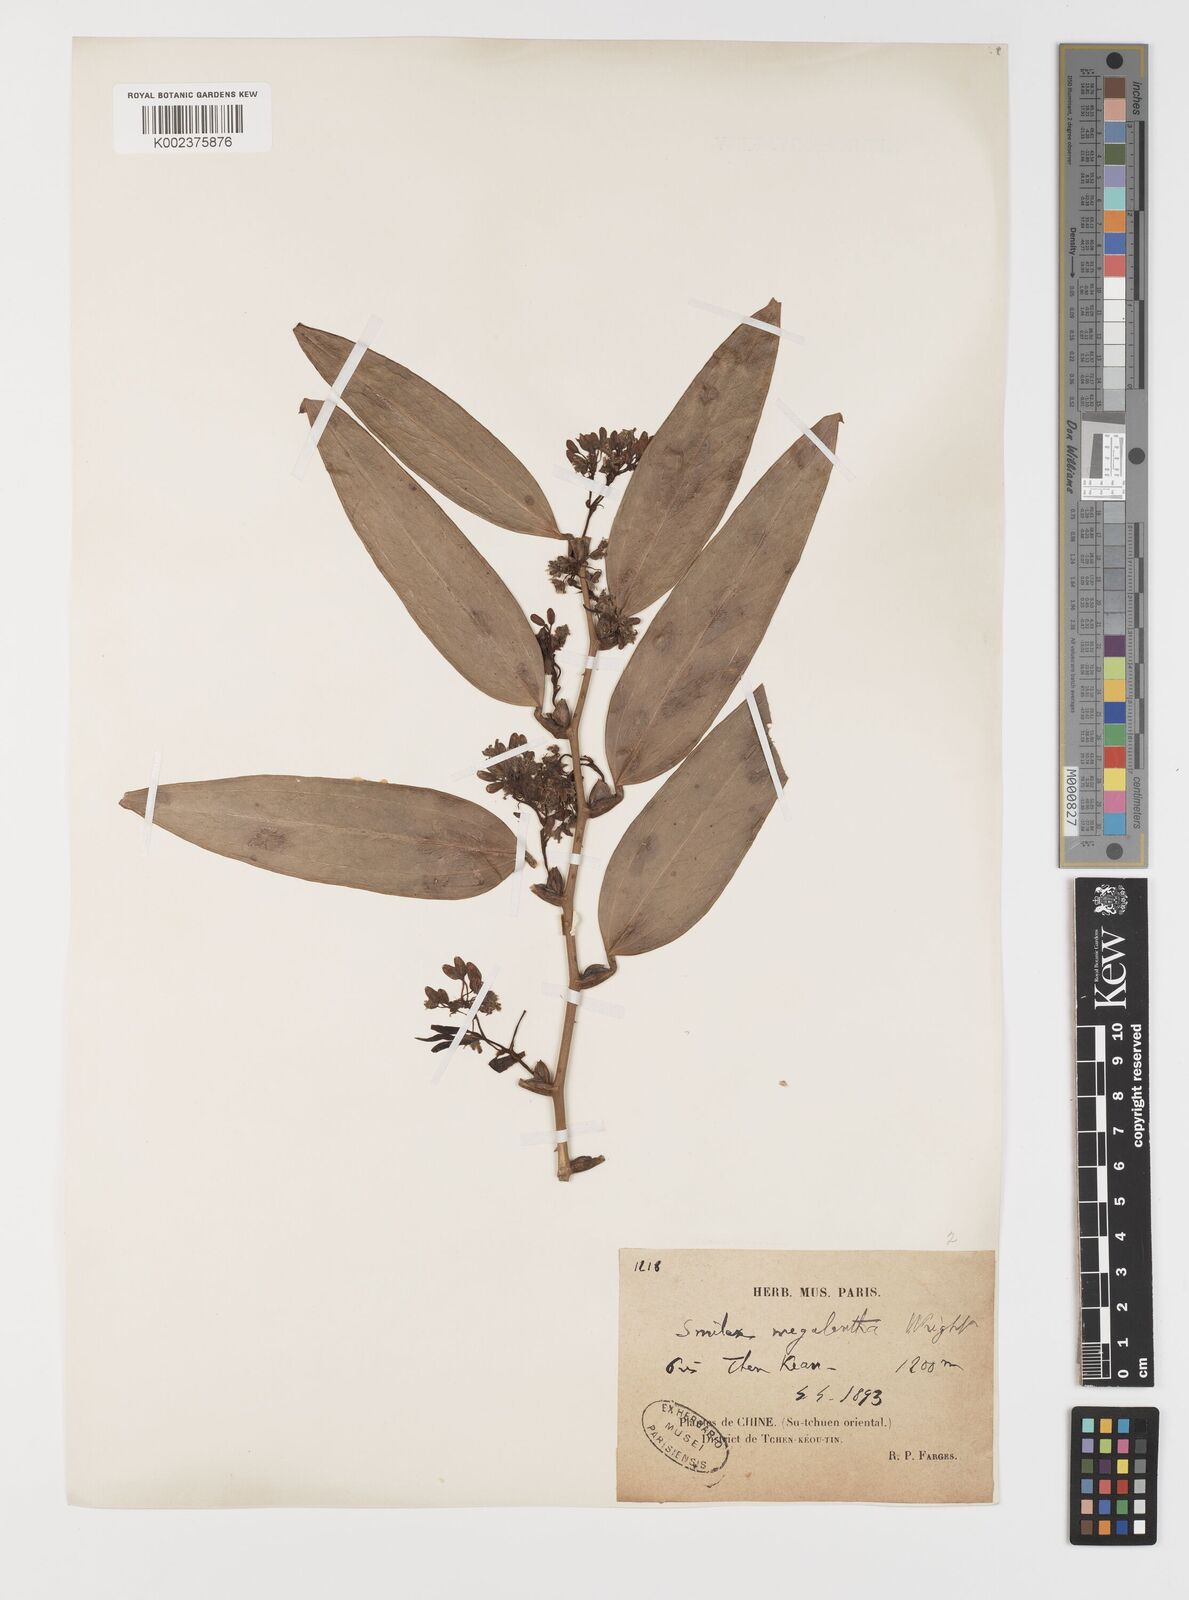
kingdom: Plantae
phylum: Tracheophyta
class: Liliopsida
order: Liliales
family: Smilacaceae
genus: Smilax
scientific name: Smilax megalantha
